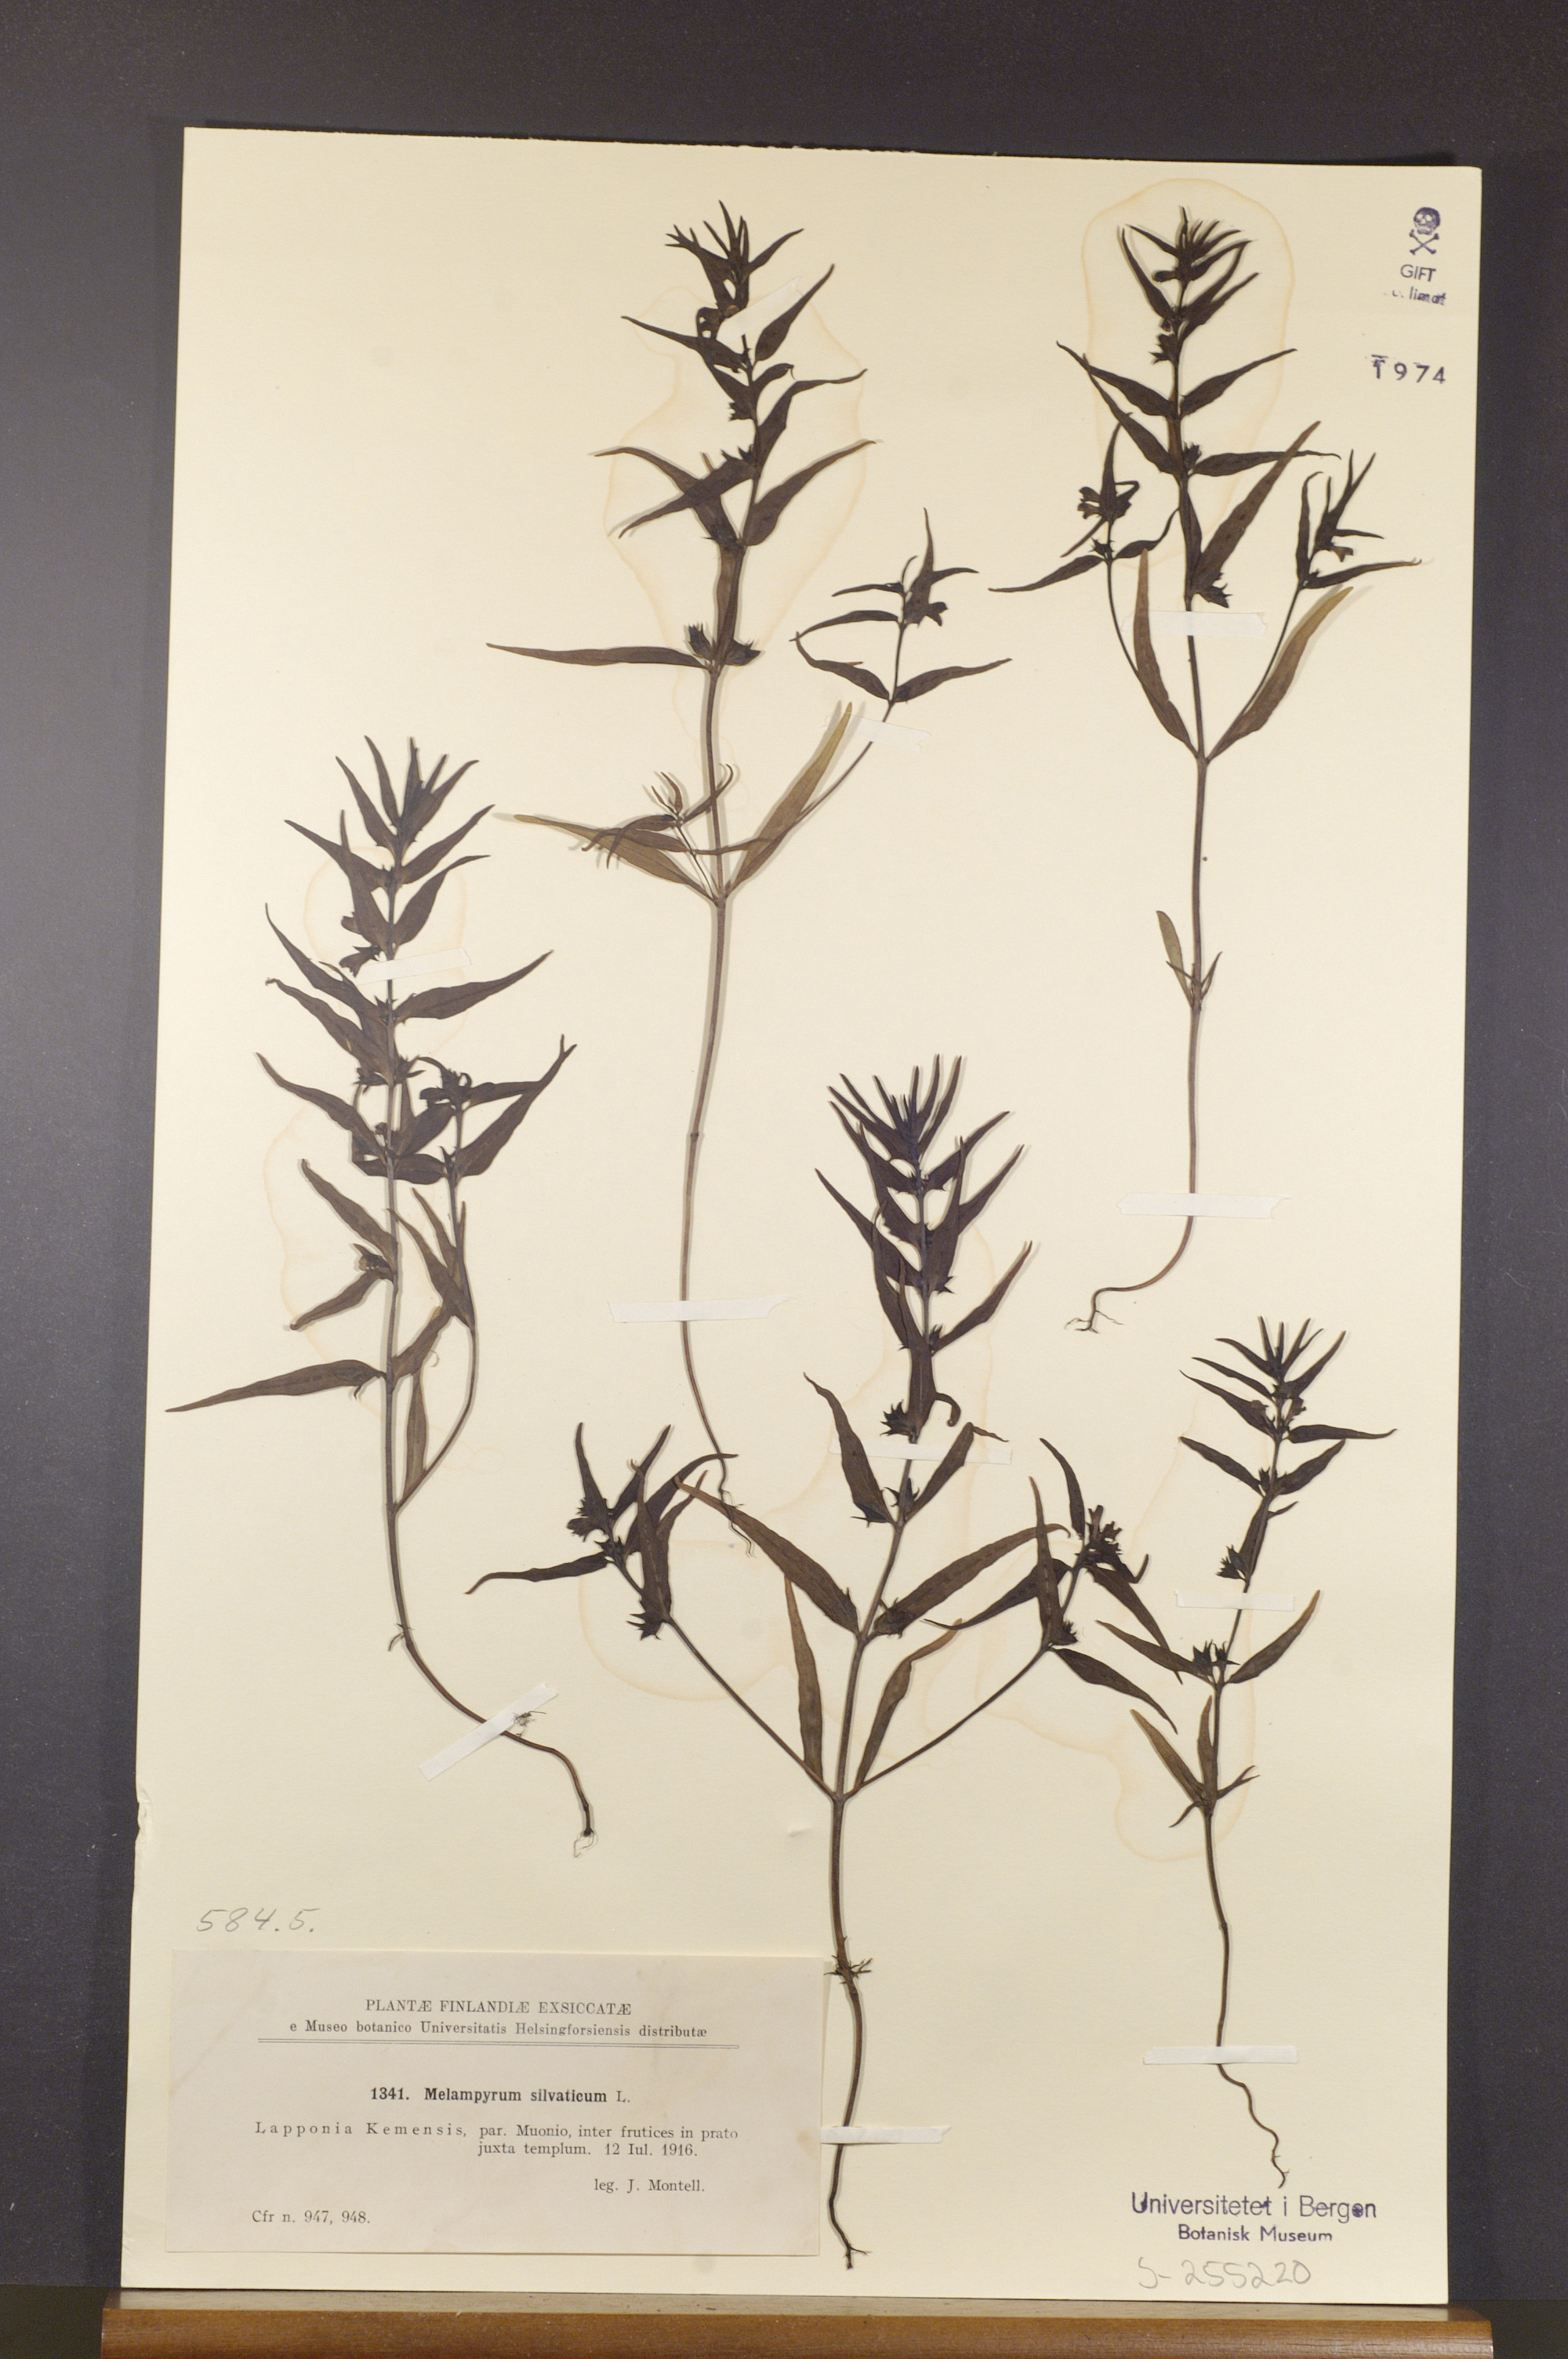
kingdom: Plantae
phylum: Tracheophyta
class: Magnoliopsida
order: Lamiales
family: Orobanchaceae
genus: Melampyrum
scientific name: Melampyrum sylvaticum
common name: Small cow-wheat
